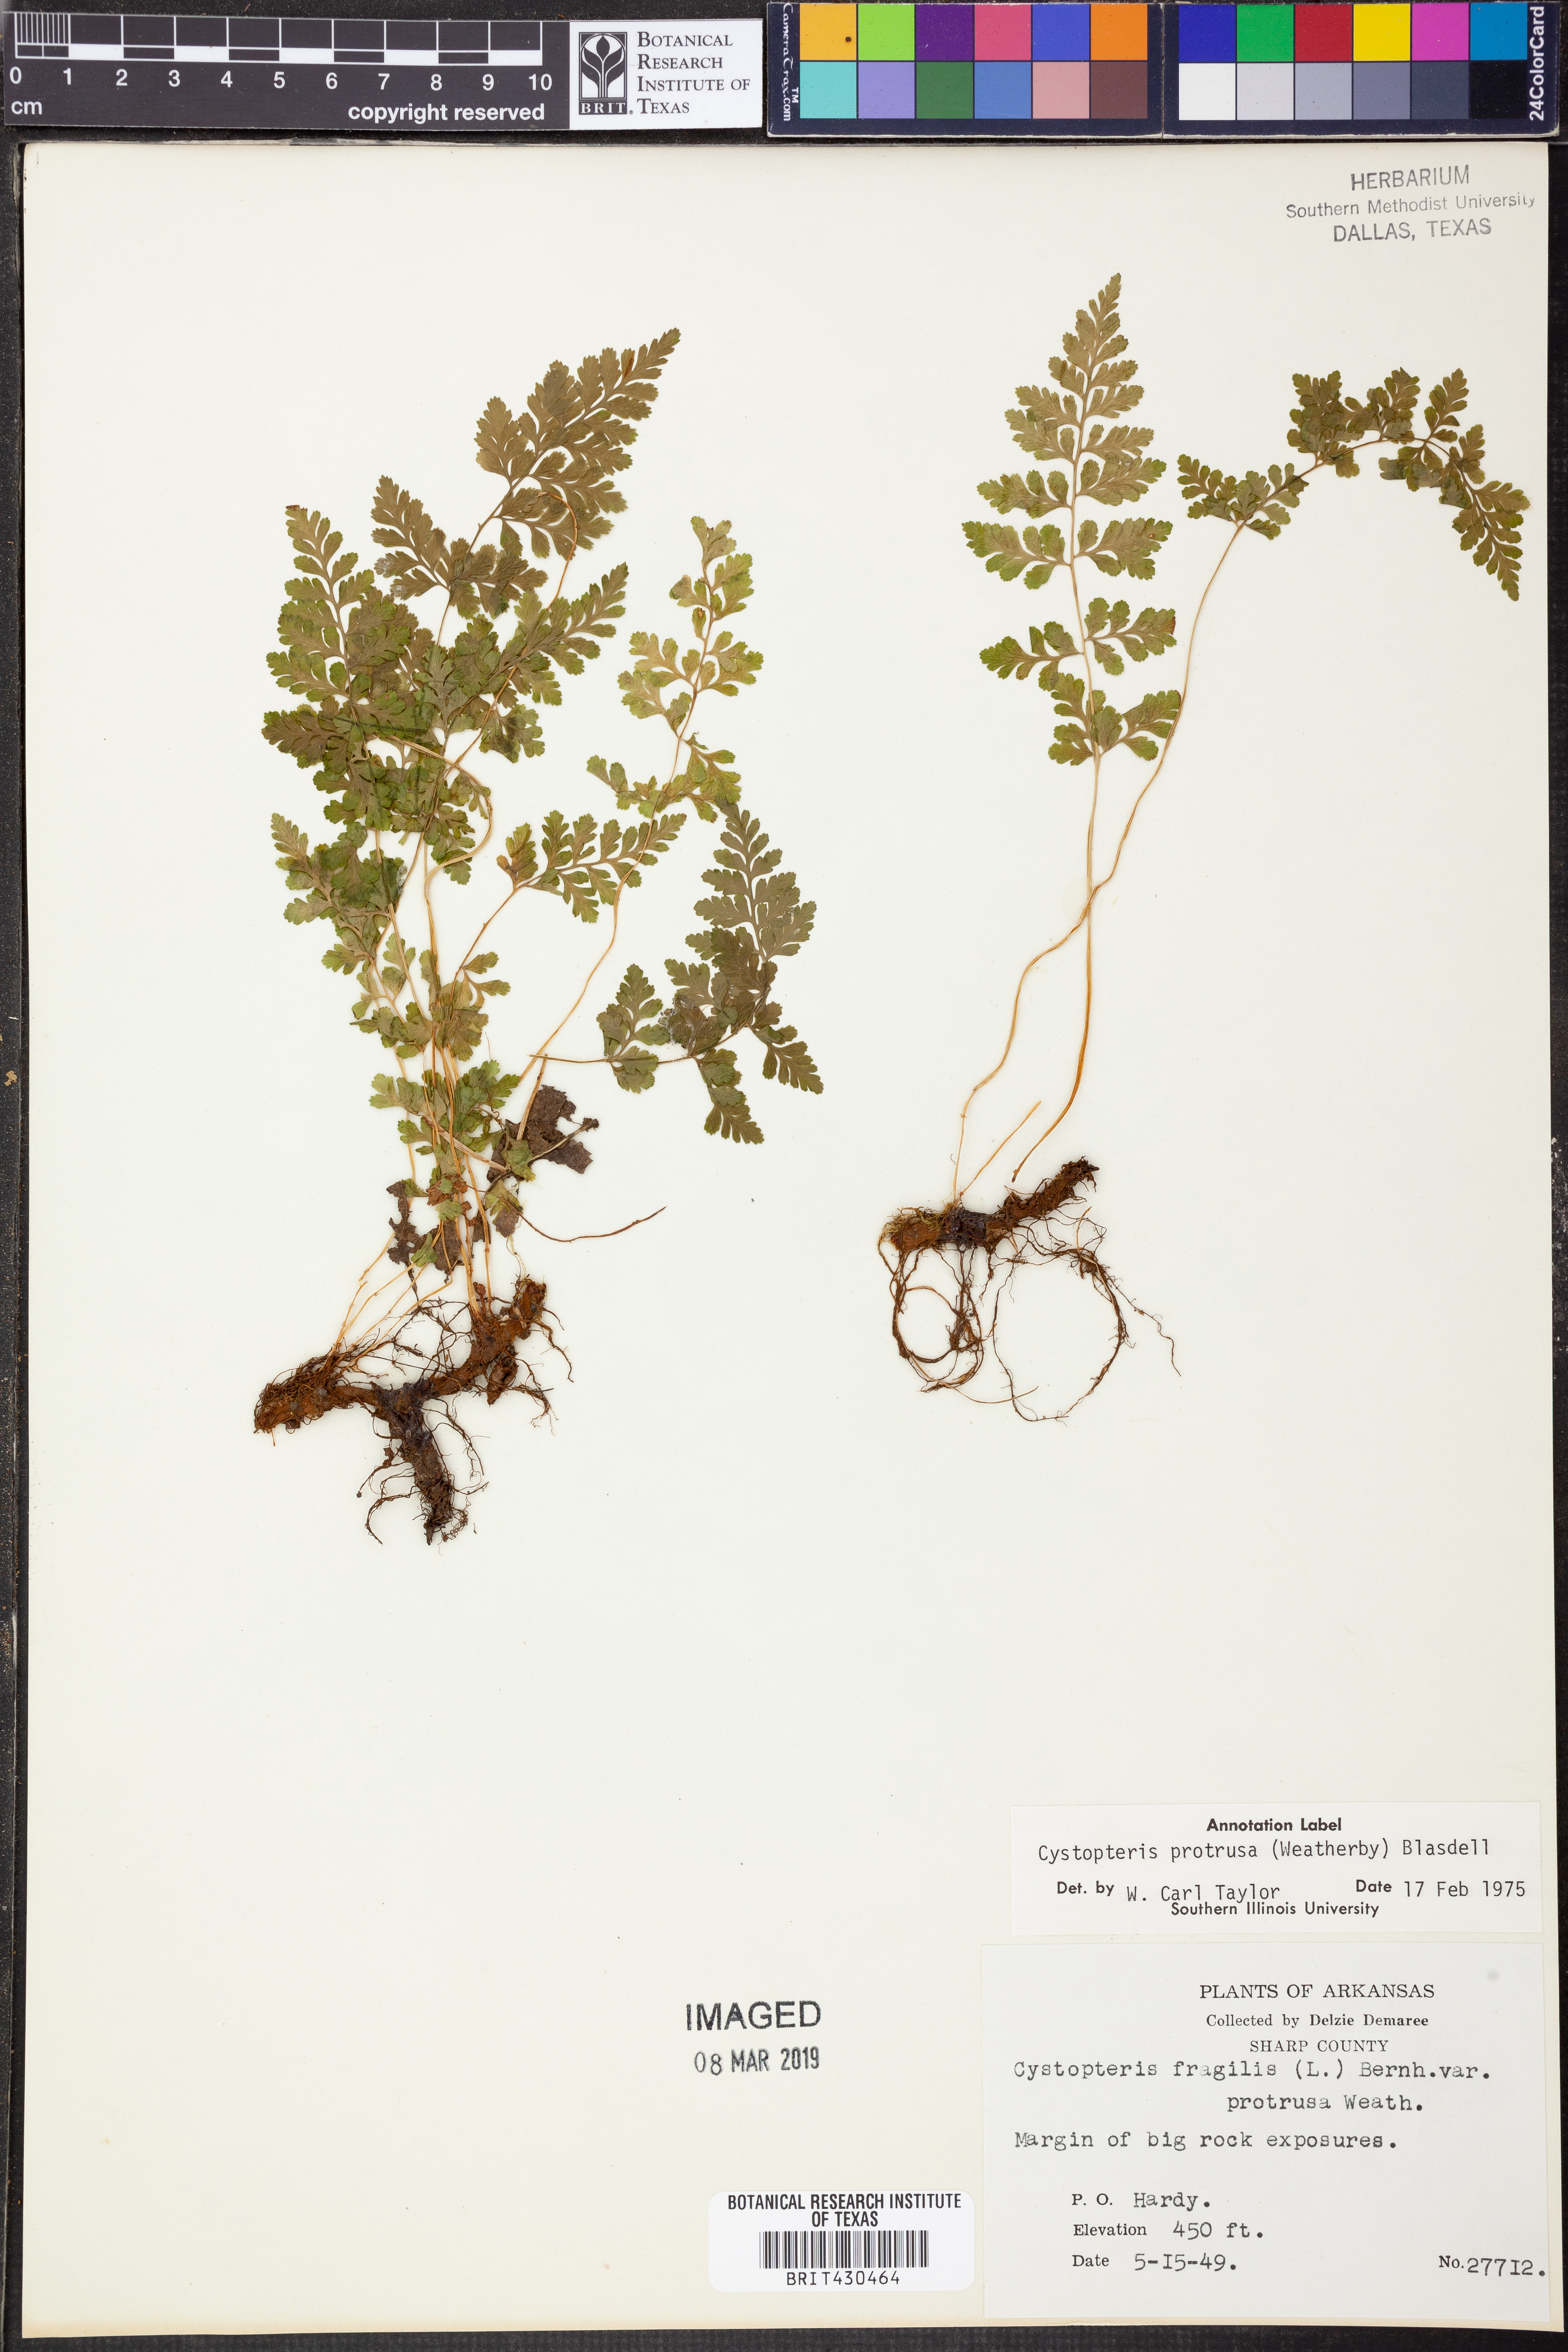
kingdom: Plantae
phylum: Tracheophyta
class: Polypodiopsida
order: Polypodiales
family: Cystopteridaceae
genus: Cystopteris
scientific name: Cystopteris protrusa
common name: Lowland brittle fern
